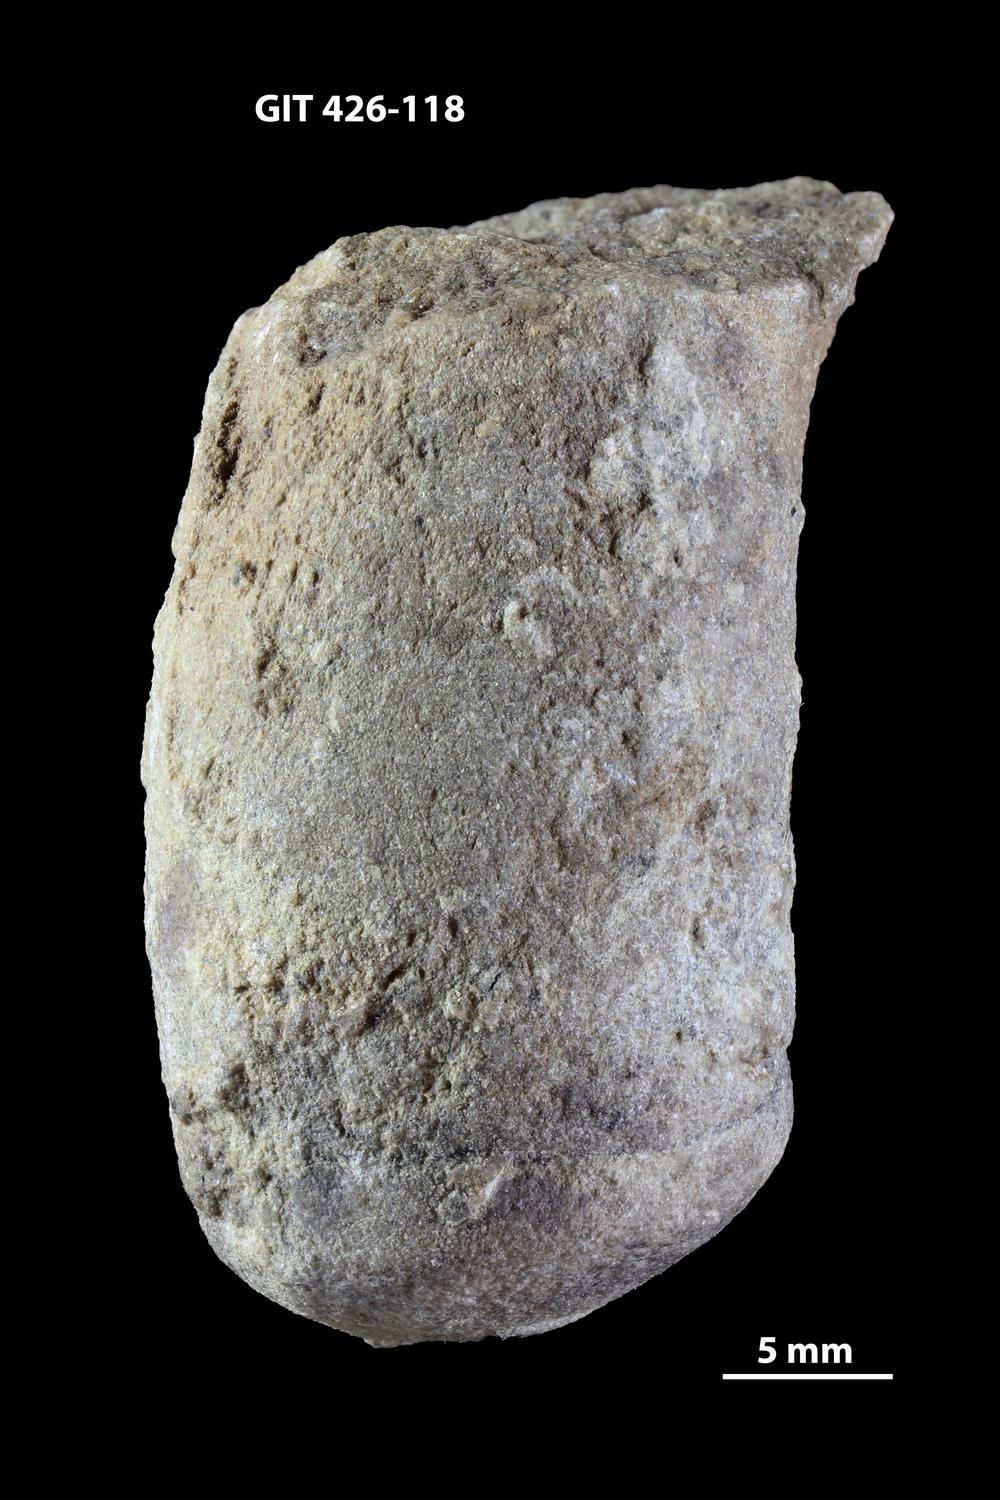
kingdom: Animalia
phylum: Mollusca
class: Cephalopoda
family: Estonioceratidae
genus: Tragoceras
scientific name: Tragoceras
